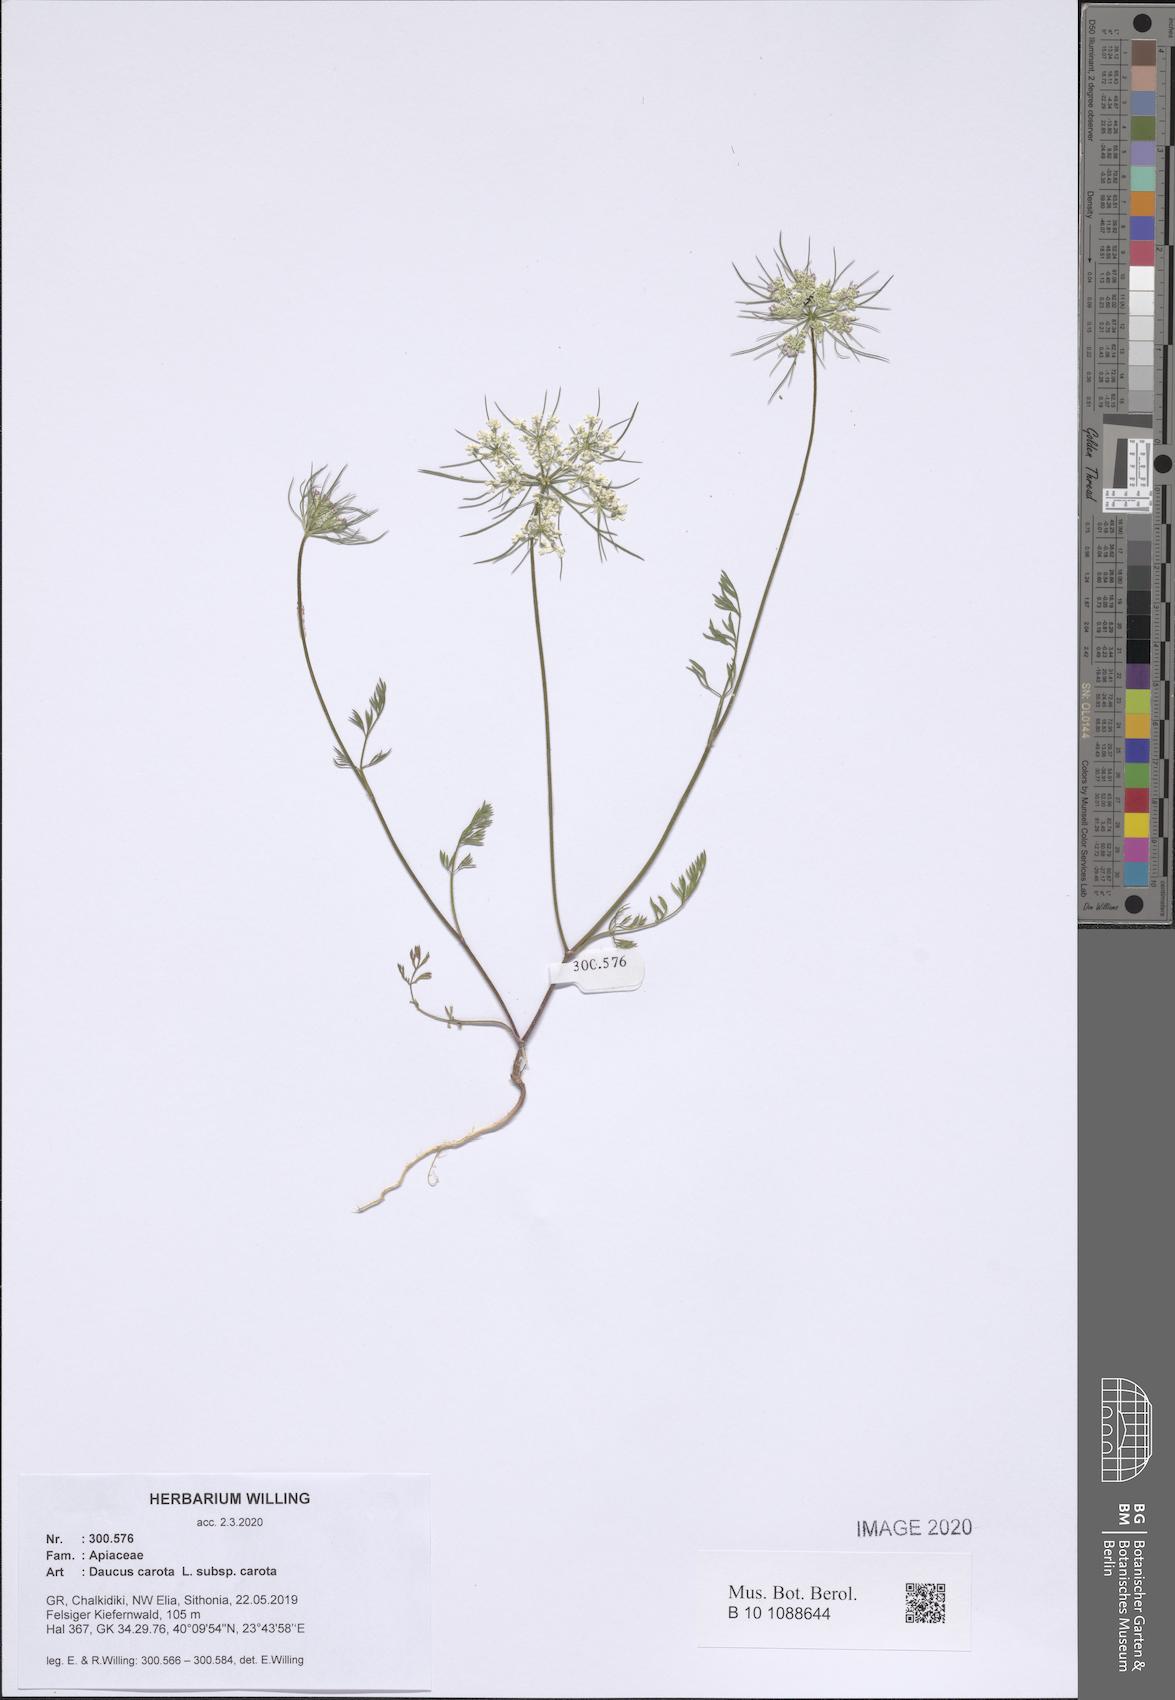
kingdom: Plantae
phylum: Tracheophyta
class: Magnoliopsida
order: Apiales
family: Apiaceae
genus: Daucus
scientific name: Daucus carota
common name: Wild carrot
